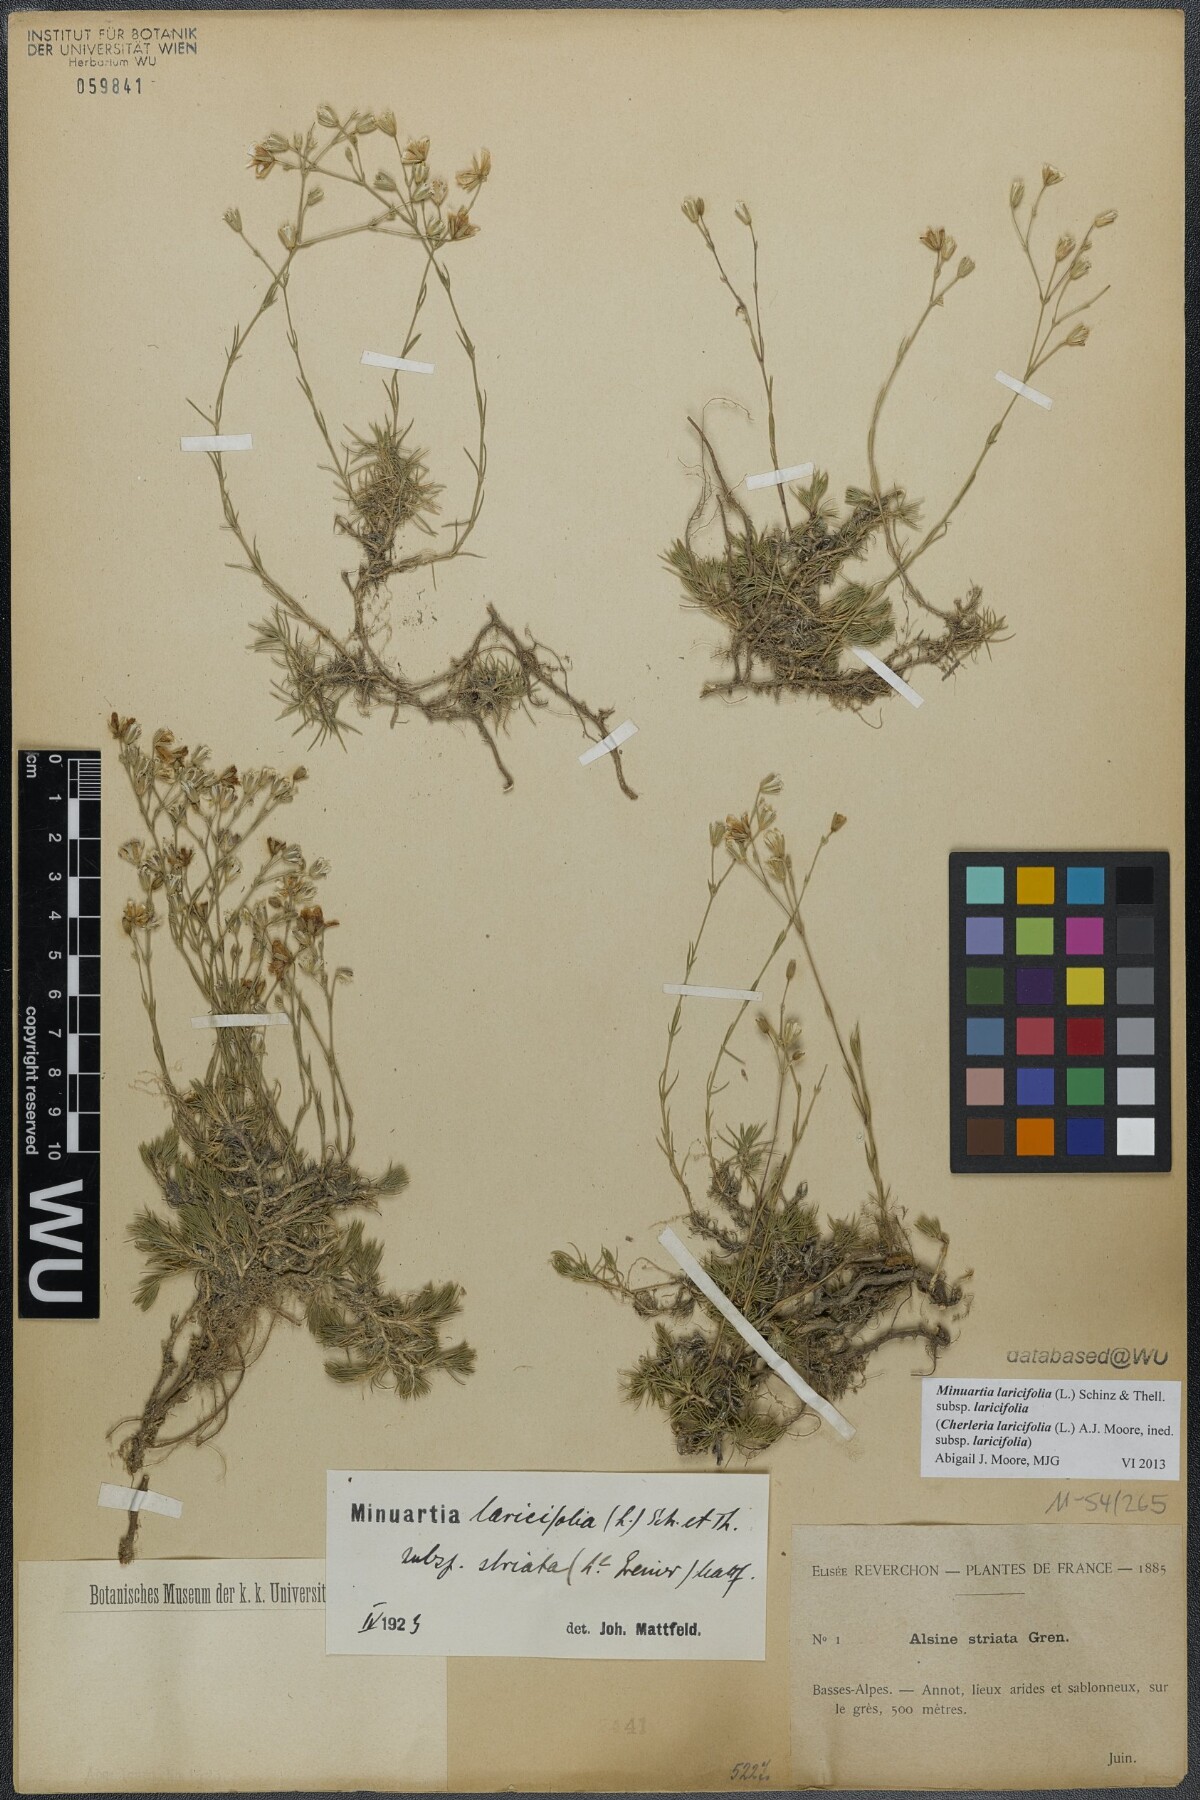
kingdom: Plantae
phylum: Tracheophyta
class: Magnoliopsida
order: Caryophyllales
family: Caryophyllaceae
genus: Cherleria
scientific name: Cherleria laricifolia
